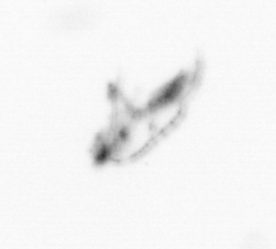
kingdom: Animalia
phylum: Arthropoda
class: Copepoda
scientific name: Copepoda
